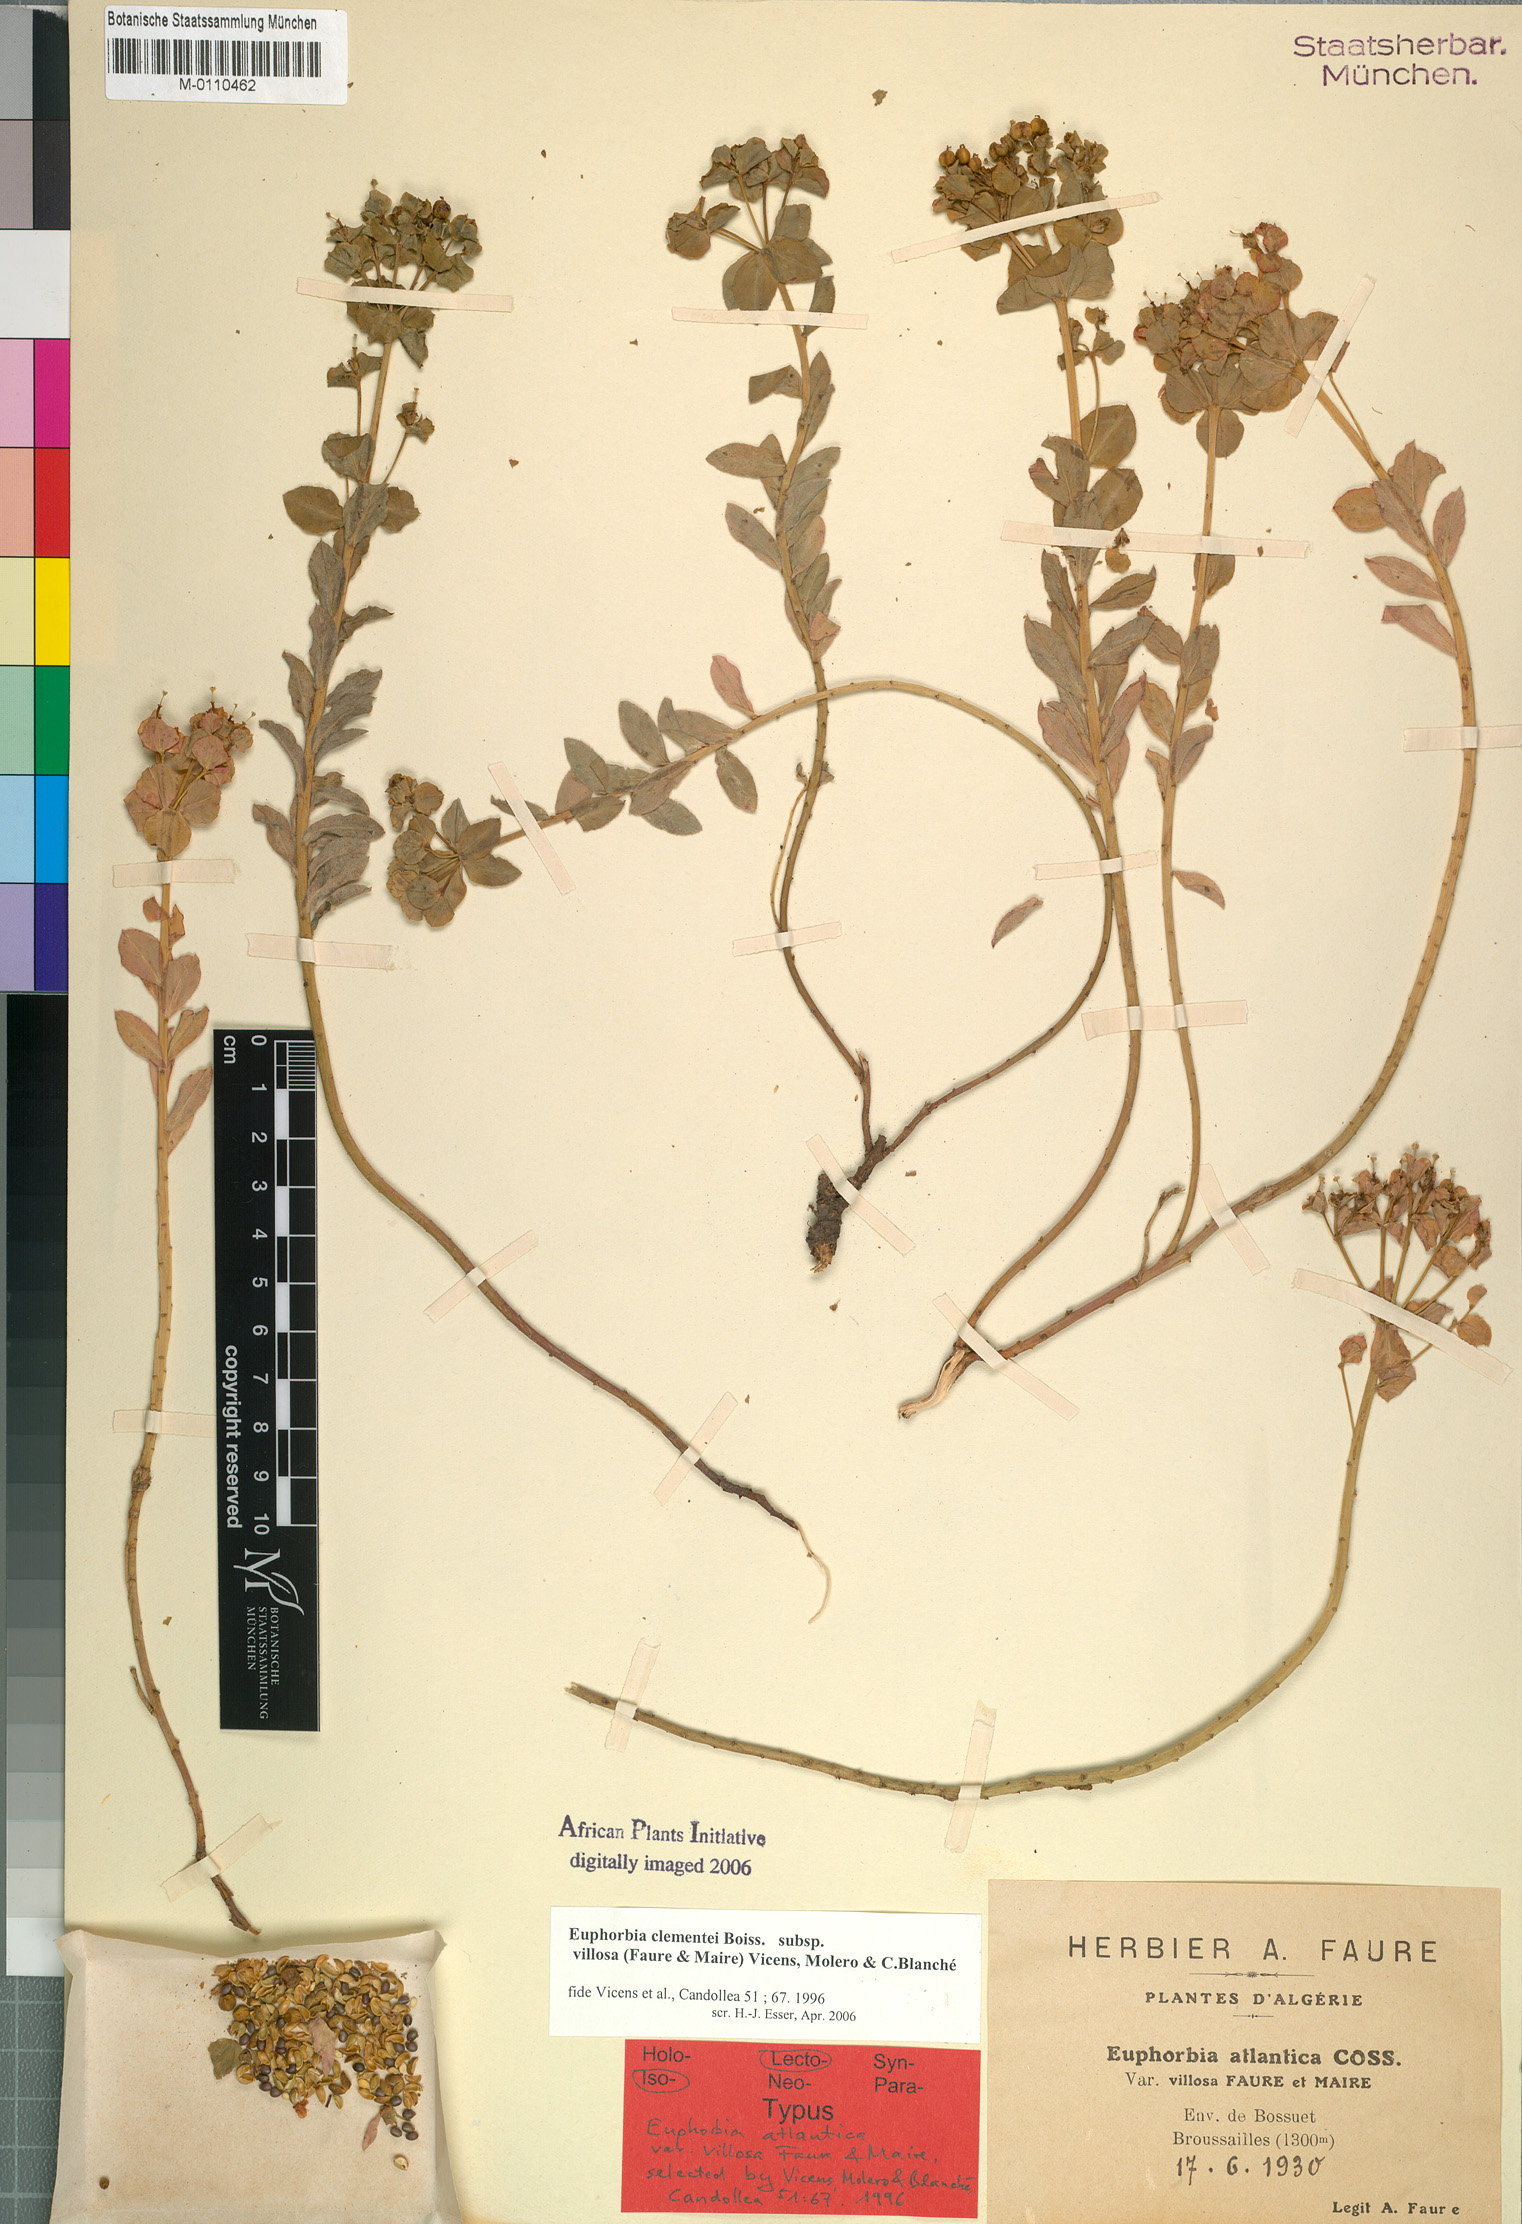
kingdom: Plantae
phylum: Tracheophyta
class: Magnoliopsida
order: Malpighiales
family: Euphorbiaceae
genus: Euphorbia
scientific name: Euphorbia clementei
